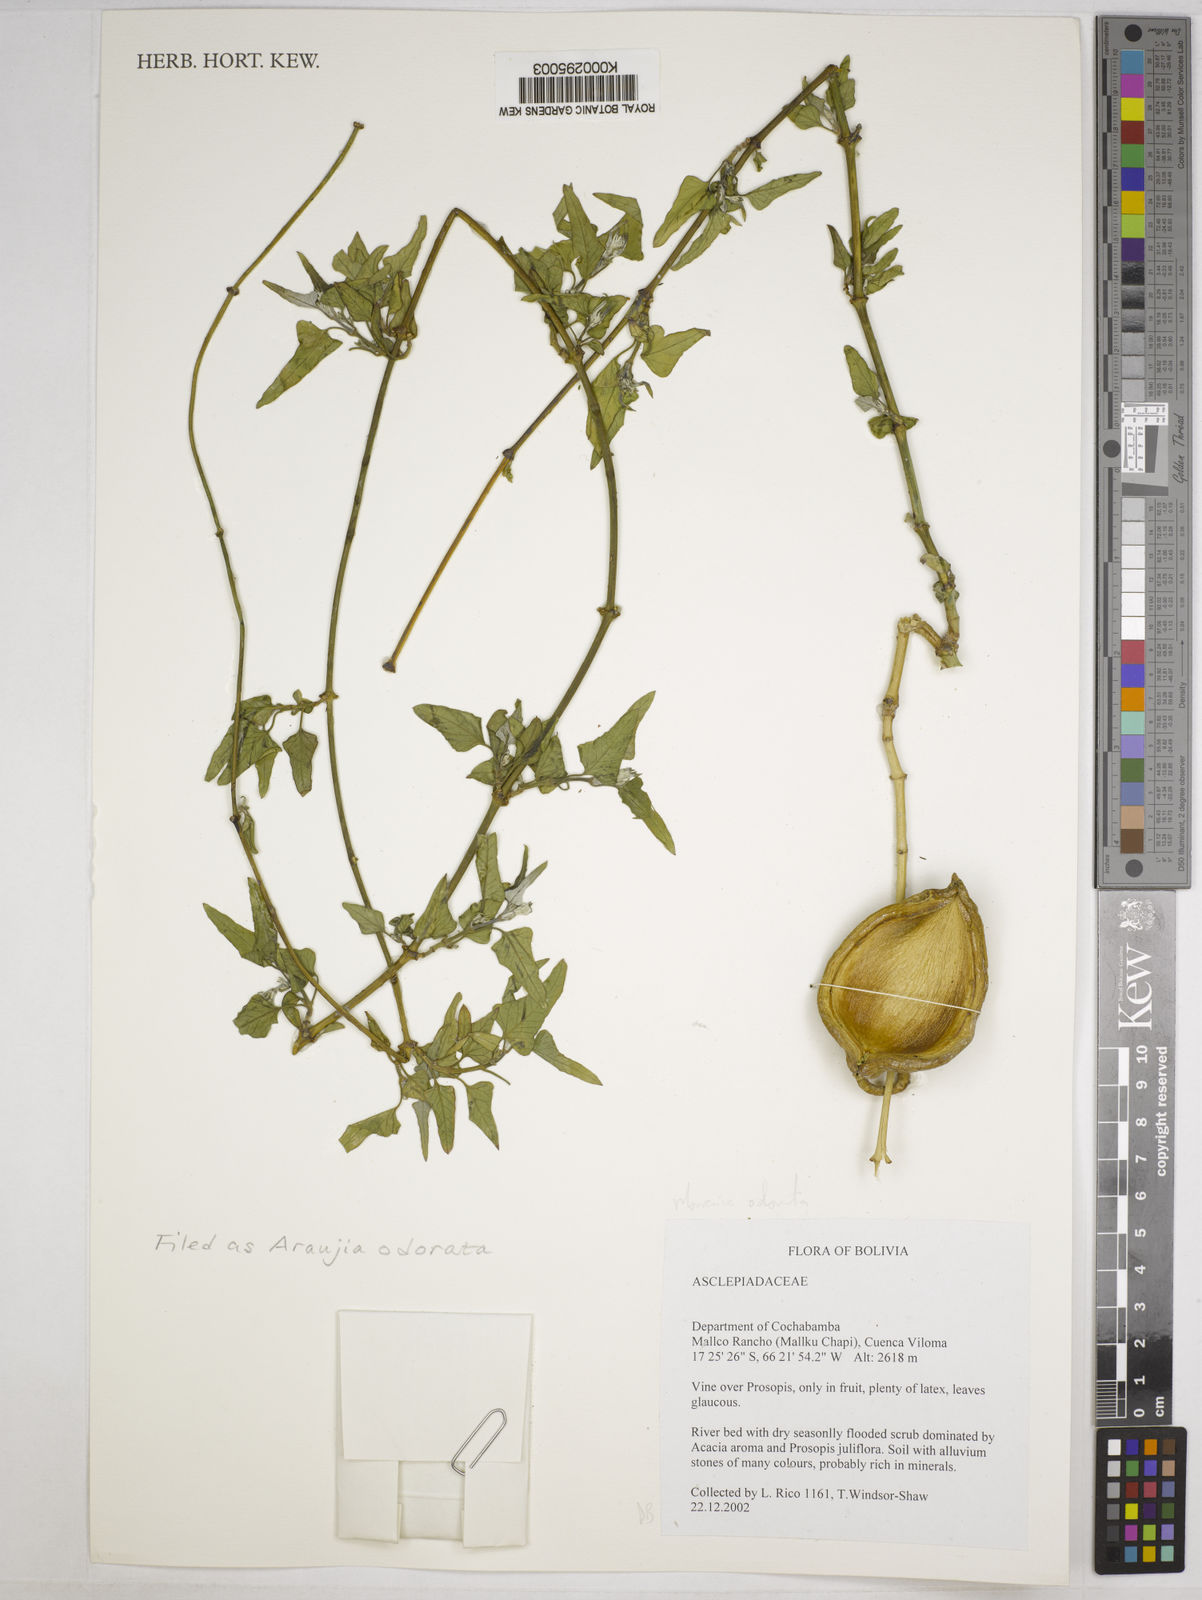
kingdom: Plantae
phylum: Tracheophyta
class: Magnoliopsida
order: Gentianales
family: Apocynaceae
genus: Araujia
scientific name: Araujia odorata
